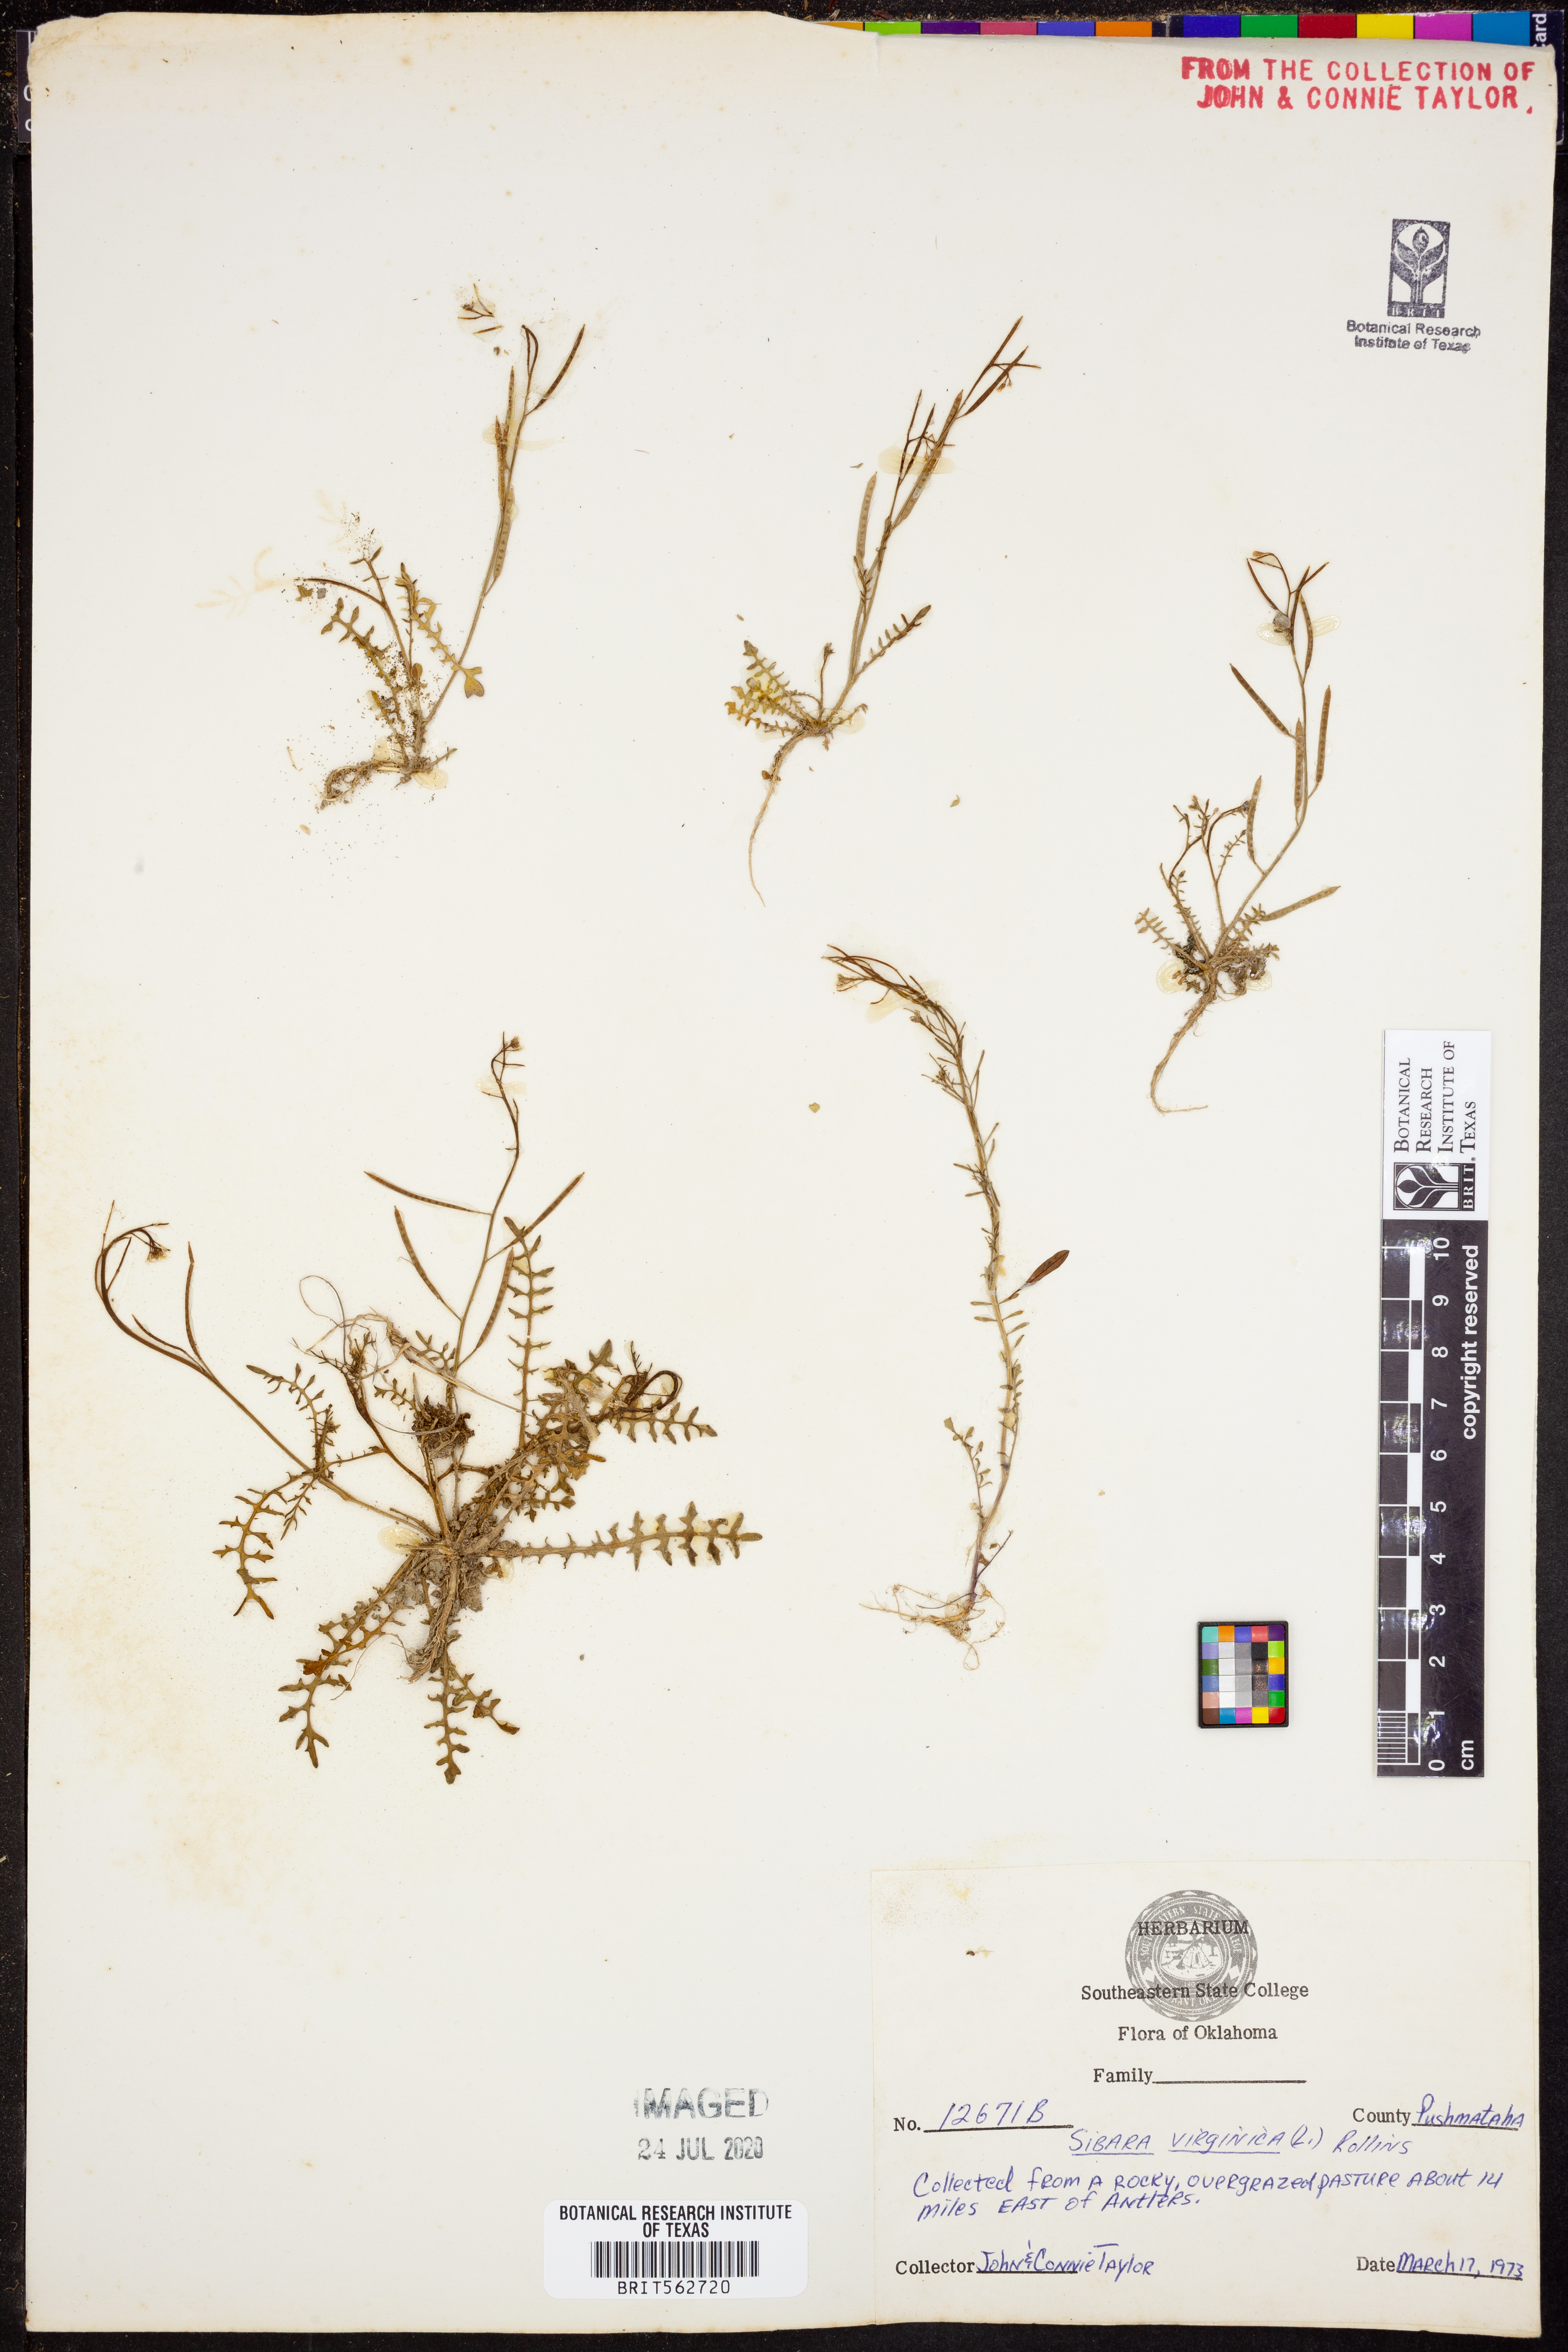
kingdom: Plantae
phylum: Tracheophyta
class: Magnoliopsida
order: Brassicales
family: Brassicaceae
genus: Planodes
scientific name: Planodes virginicum
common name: Virginia cress
